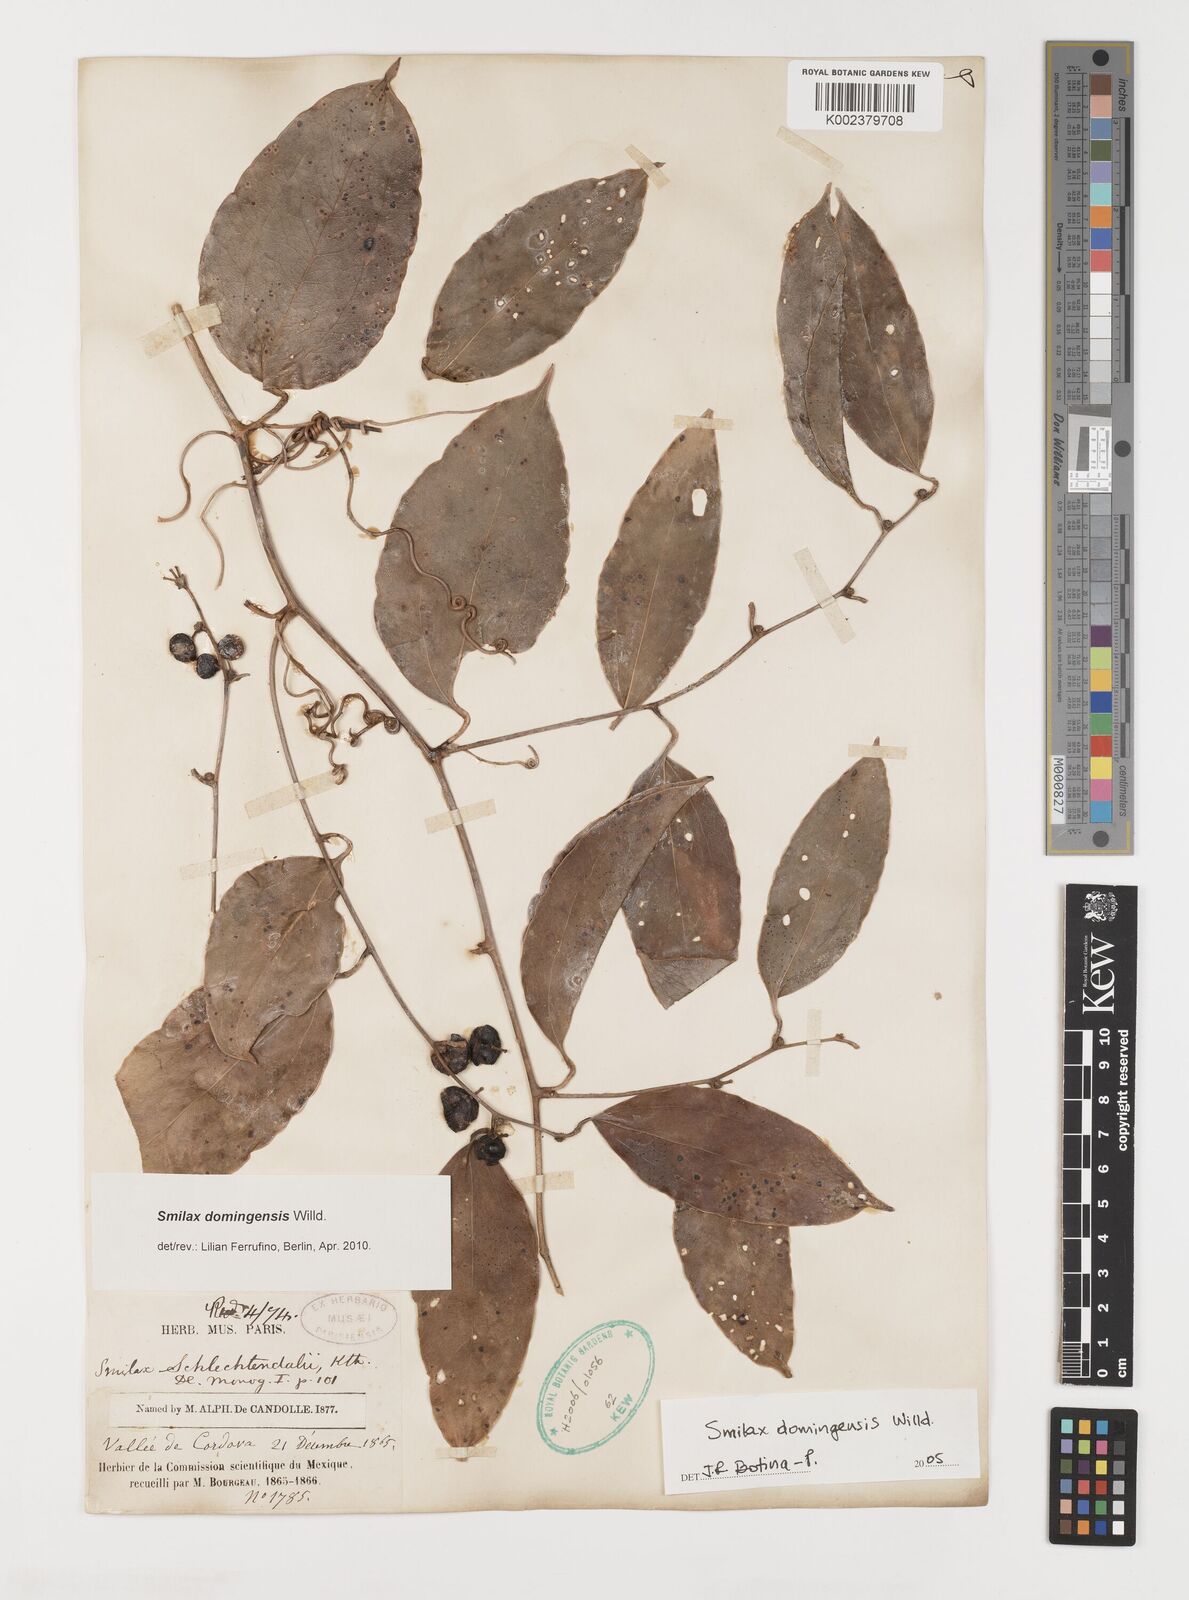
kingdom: Plantae
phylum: Tracheophyta
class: Liliopsida
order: Liliales
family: Smilacaceae
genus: Smilax
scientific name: Smilax domingensis
